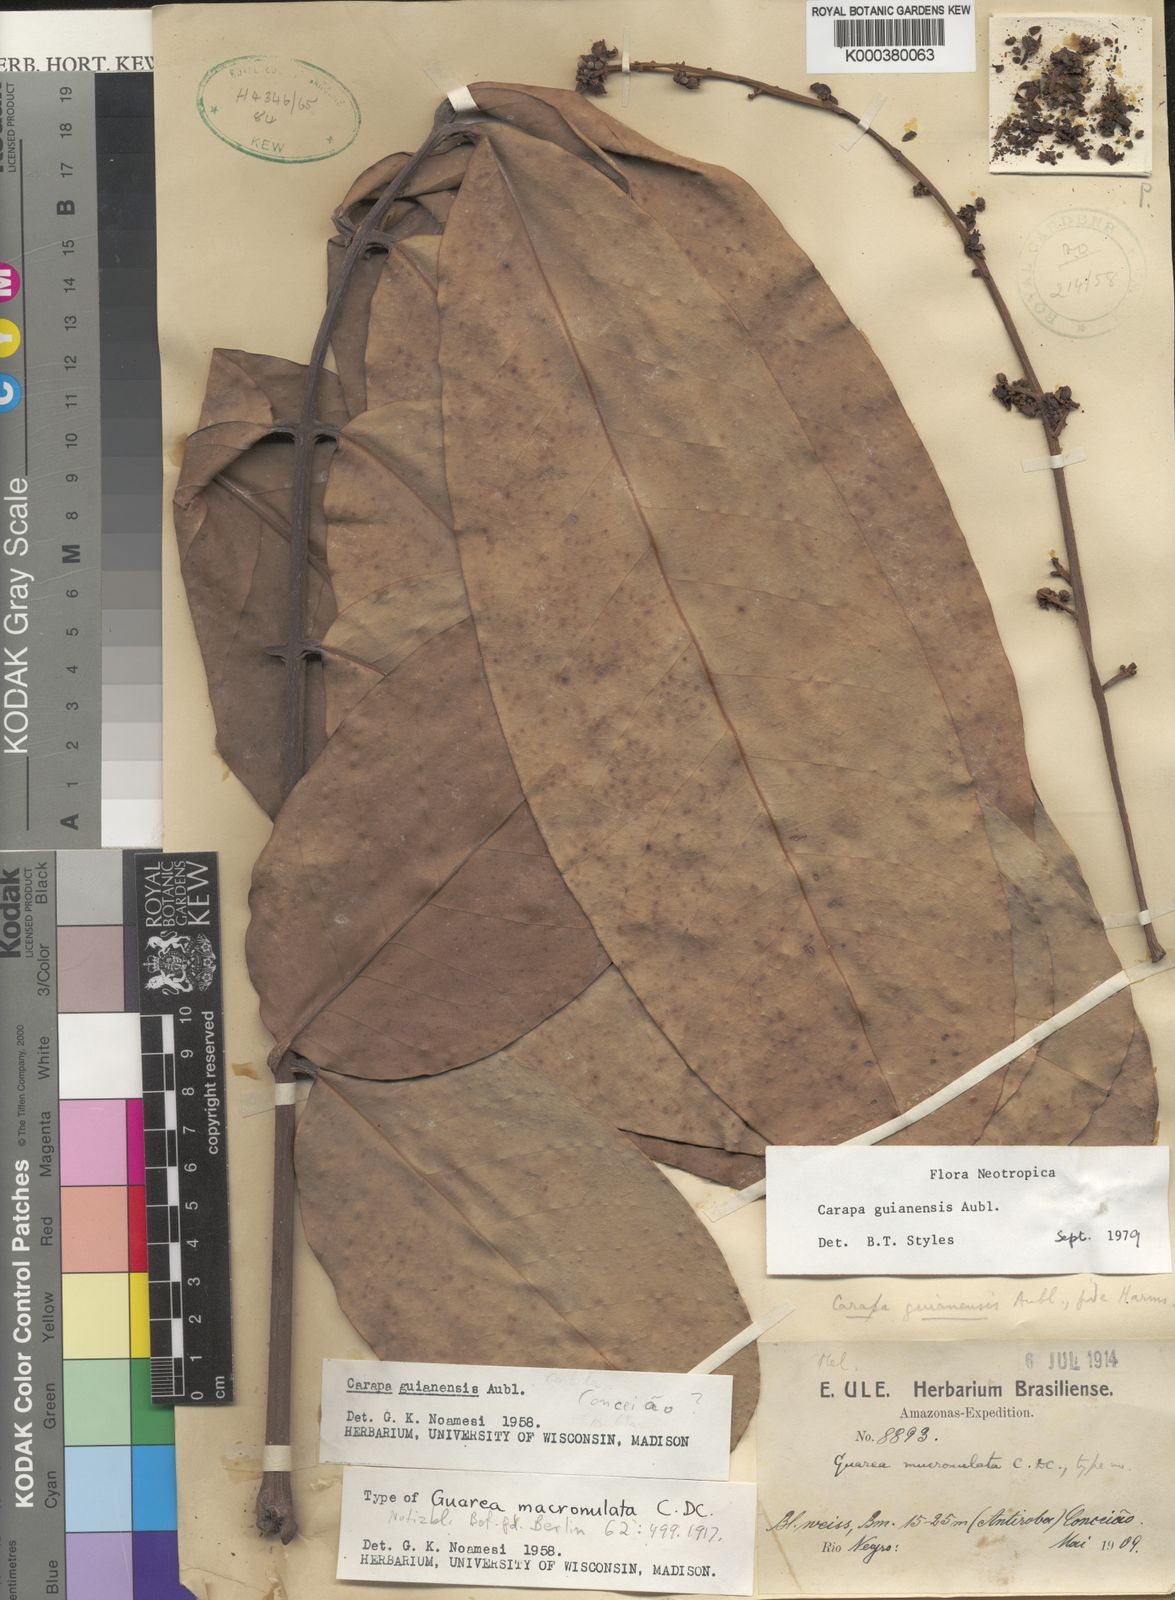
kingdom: Plantae
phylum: Tracheophyta
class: Magnoliopsida
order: Sapindales
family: Meliaceae
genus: Carapa
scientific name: Carapa guianensis
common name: Crabwood
